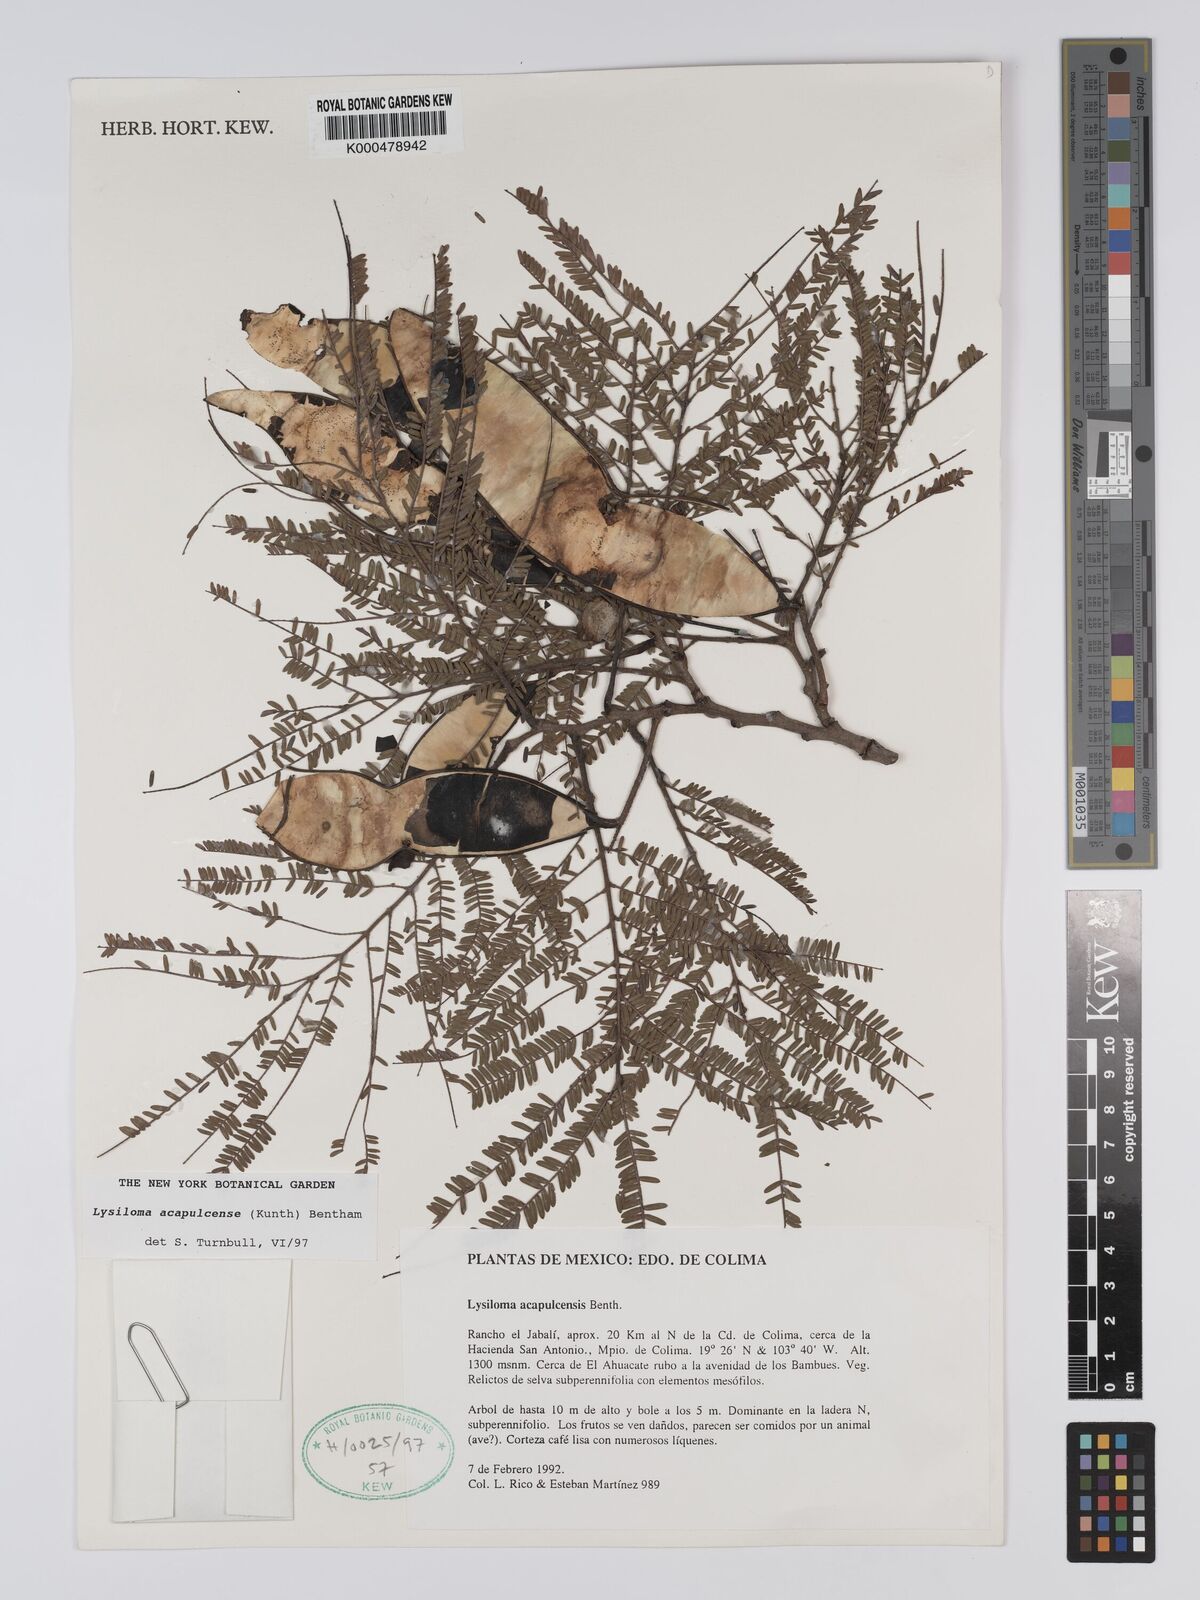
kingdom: Plantae
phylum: Tracheophyta
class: Magnoliopsida
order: Fabales
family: Fabaceae
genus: Lysiloma
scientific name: Lysiloma
